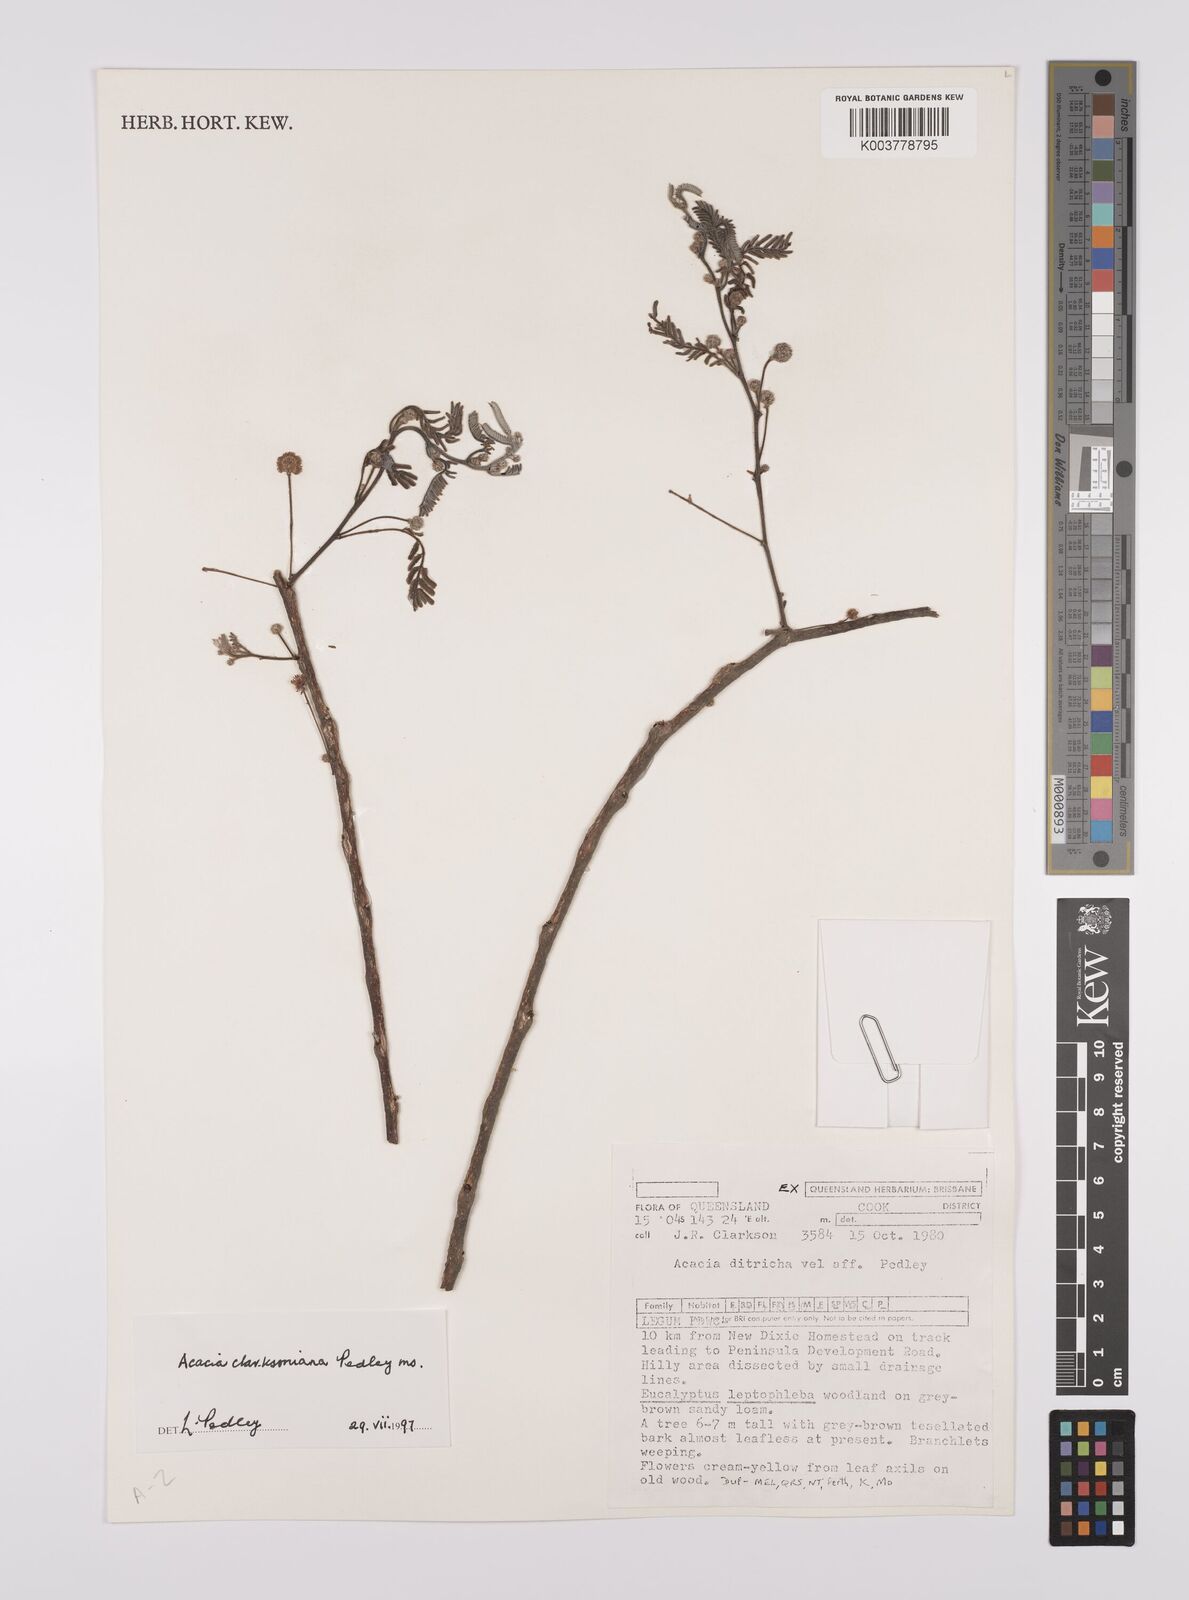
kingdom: Plantae
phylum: Tracheophyta
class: Magnoliopsida
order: Fabales
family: Fabaceae
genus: Vachellia
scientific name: Vachellia clarksoniana
